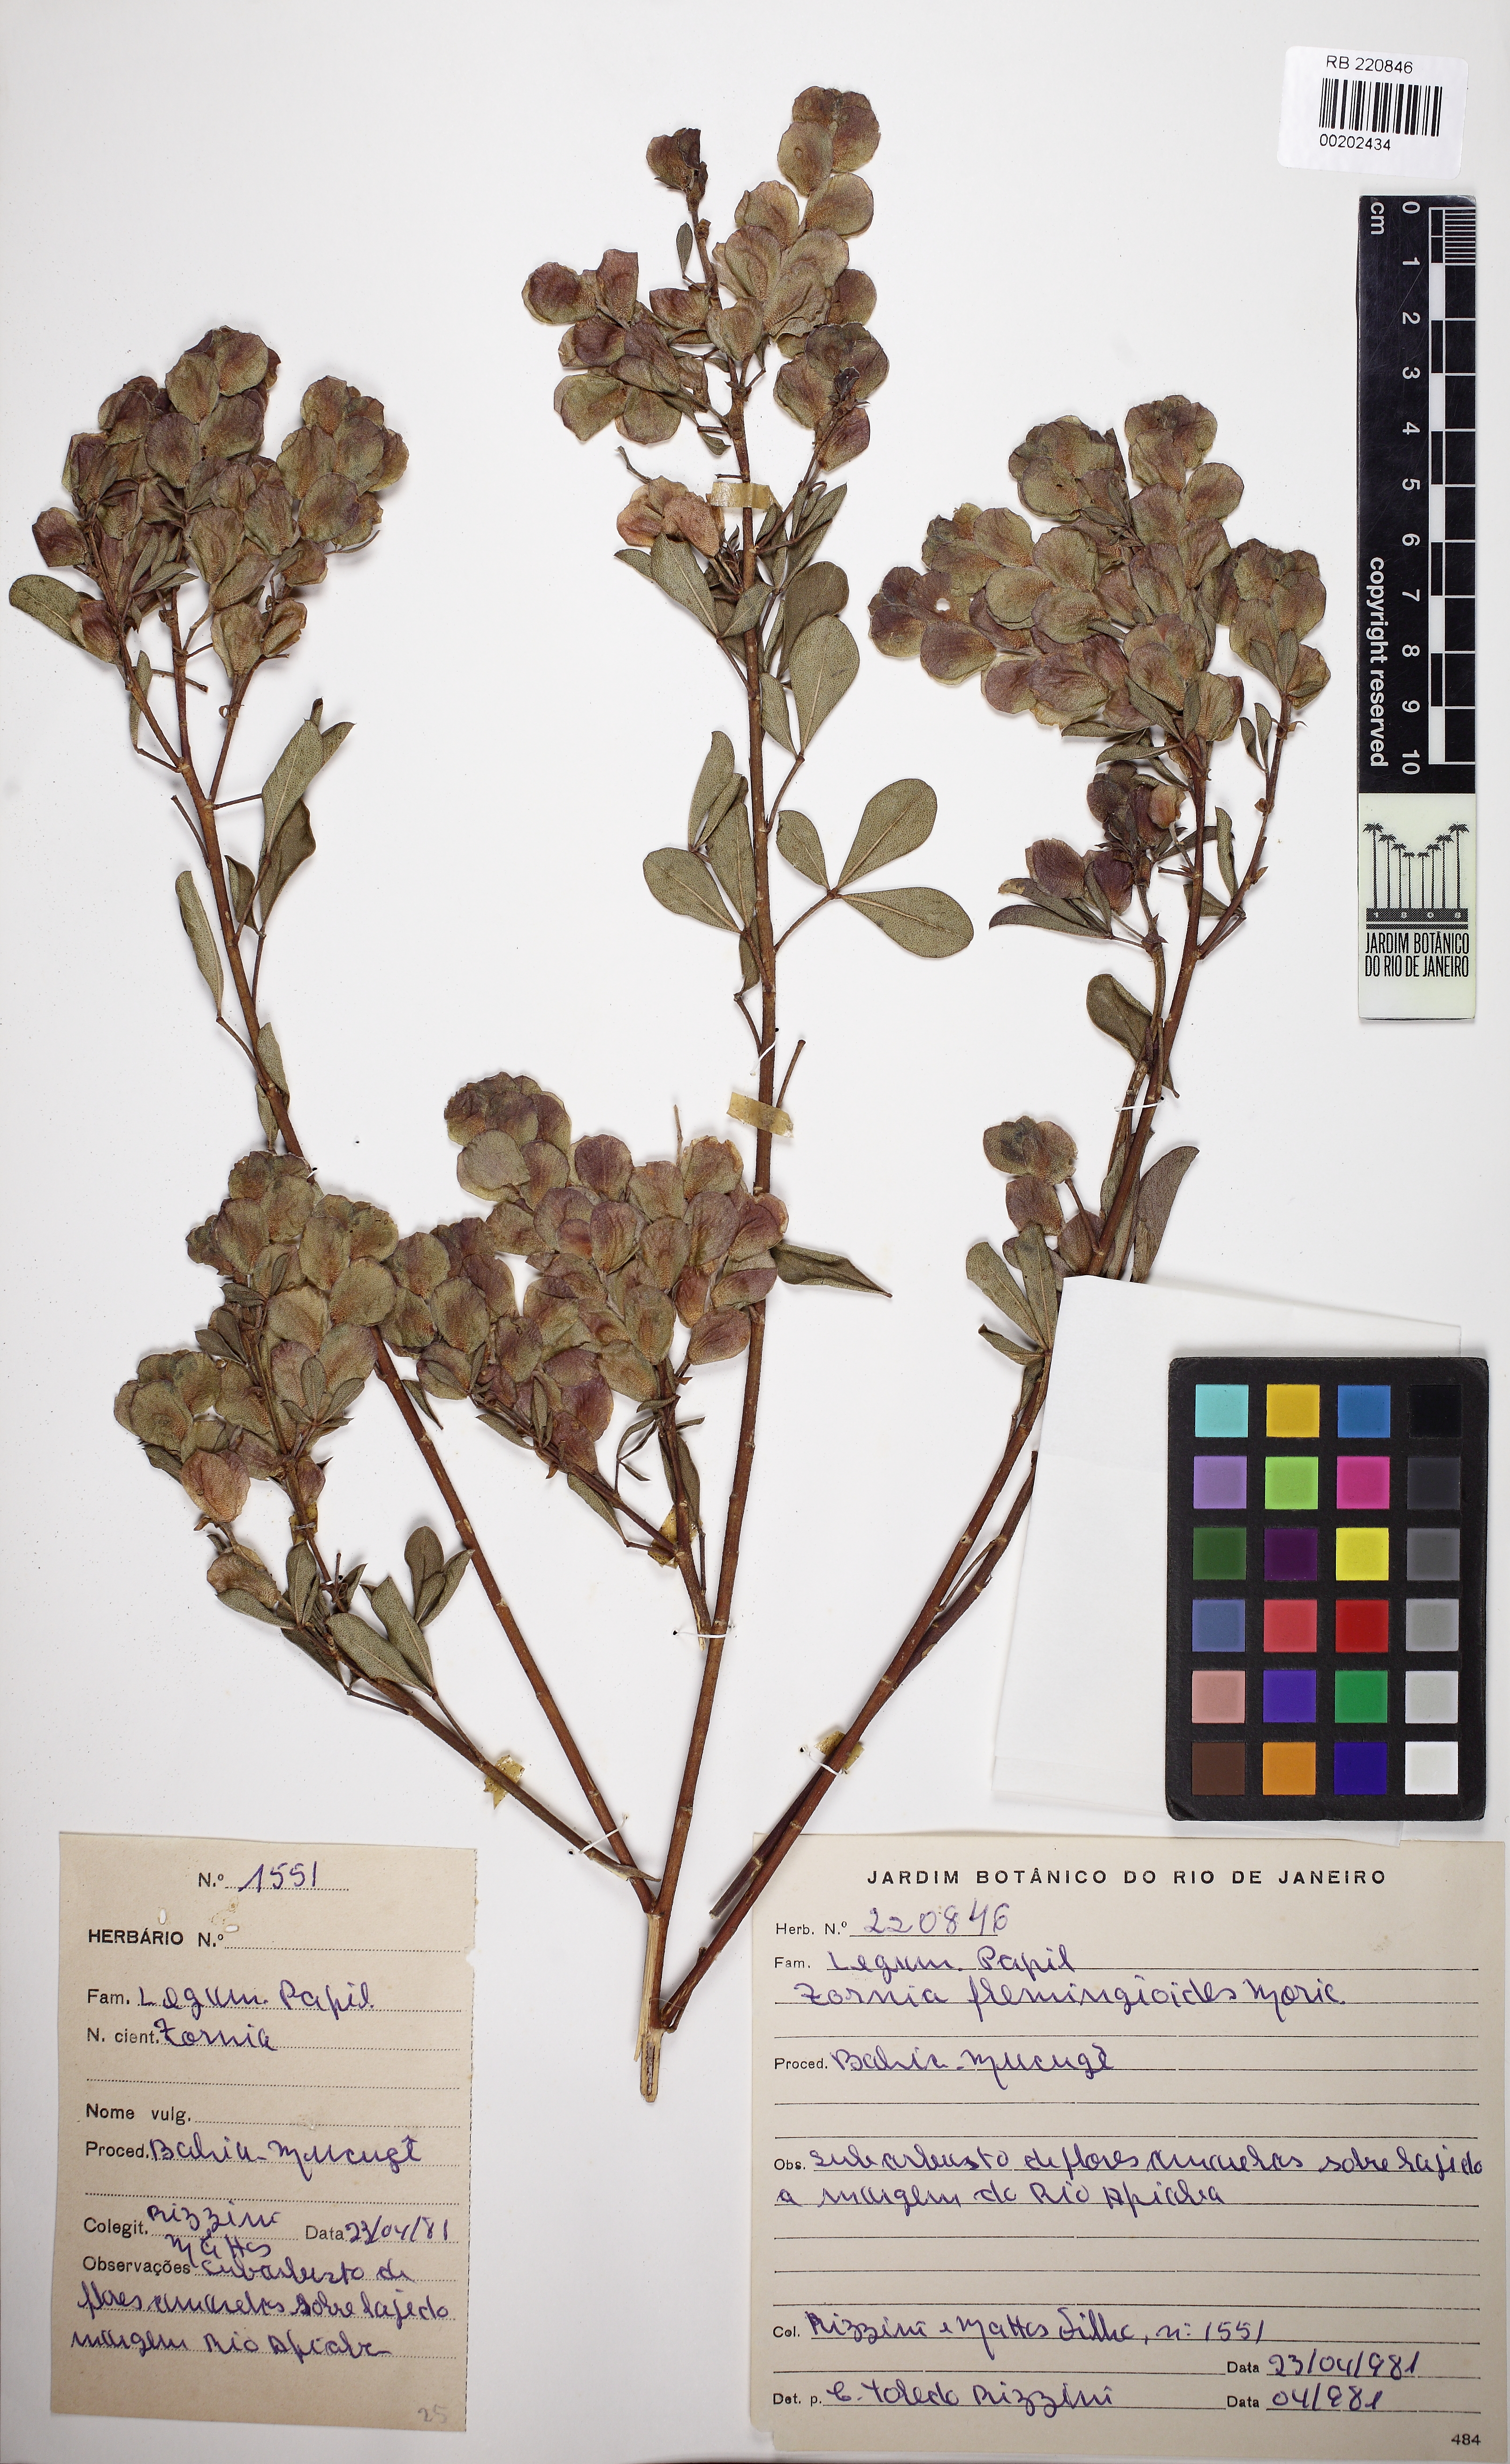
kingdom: Plantae
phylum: Tracheophyta
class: Magnoliopsida
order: Fabales
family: Fabaceae
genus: Zornia
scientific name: Zornia flemmingioides
